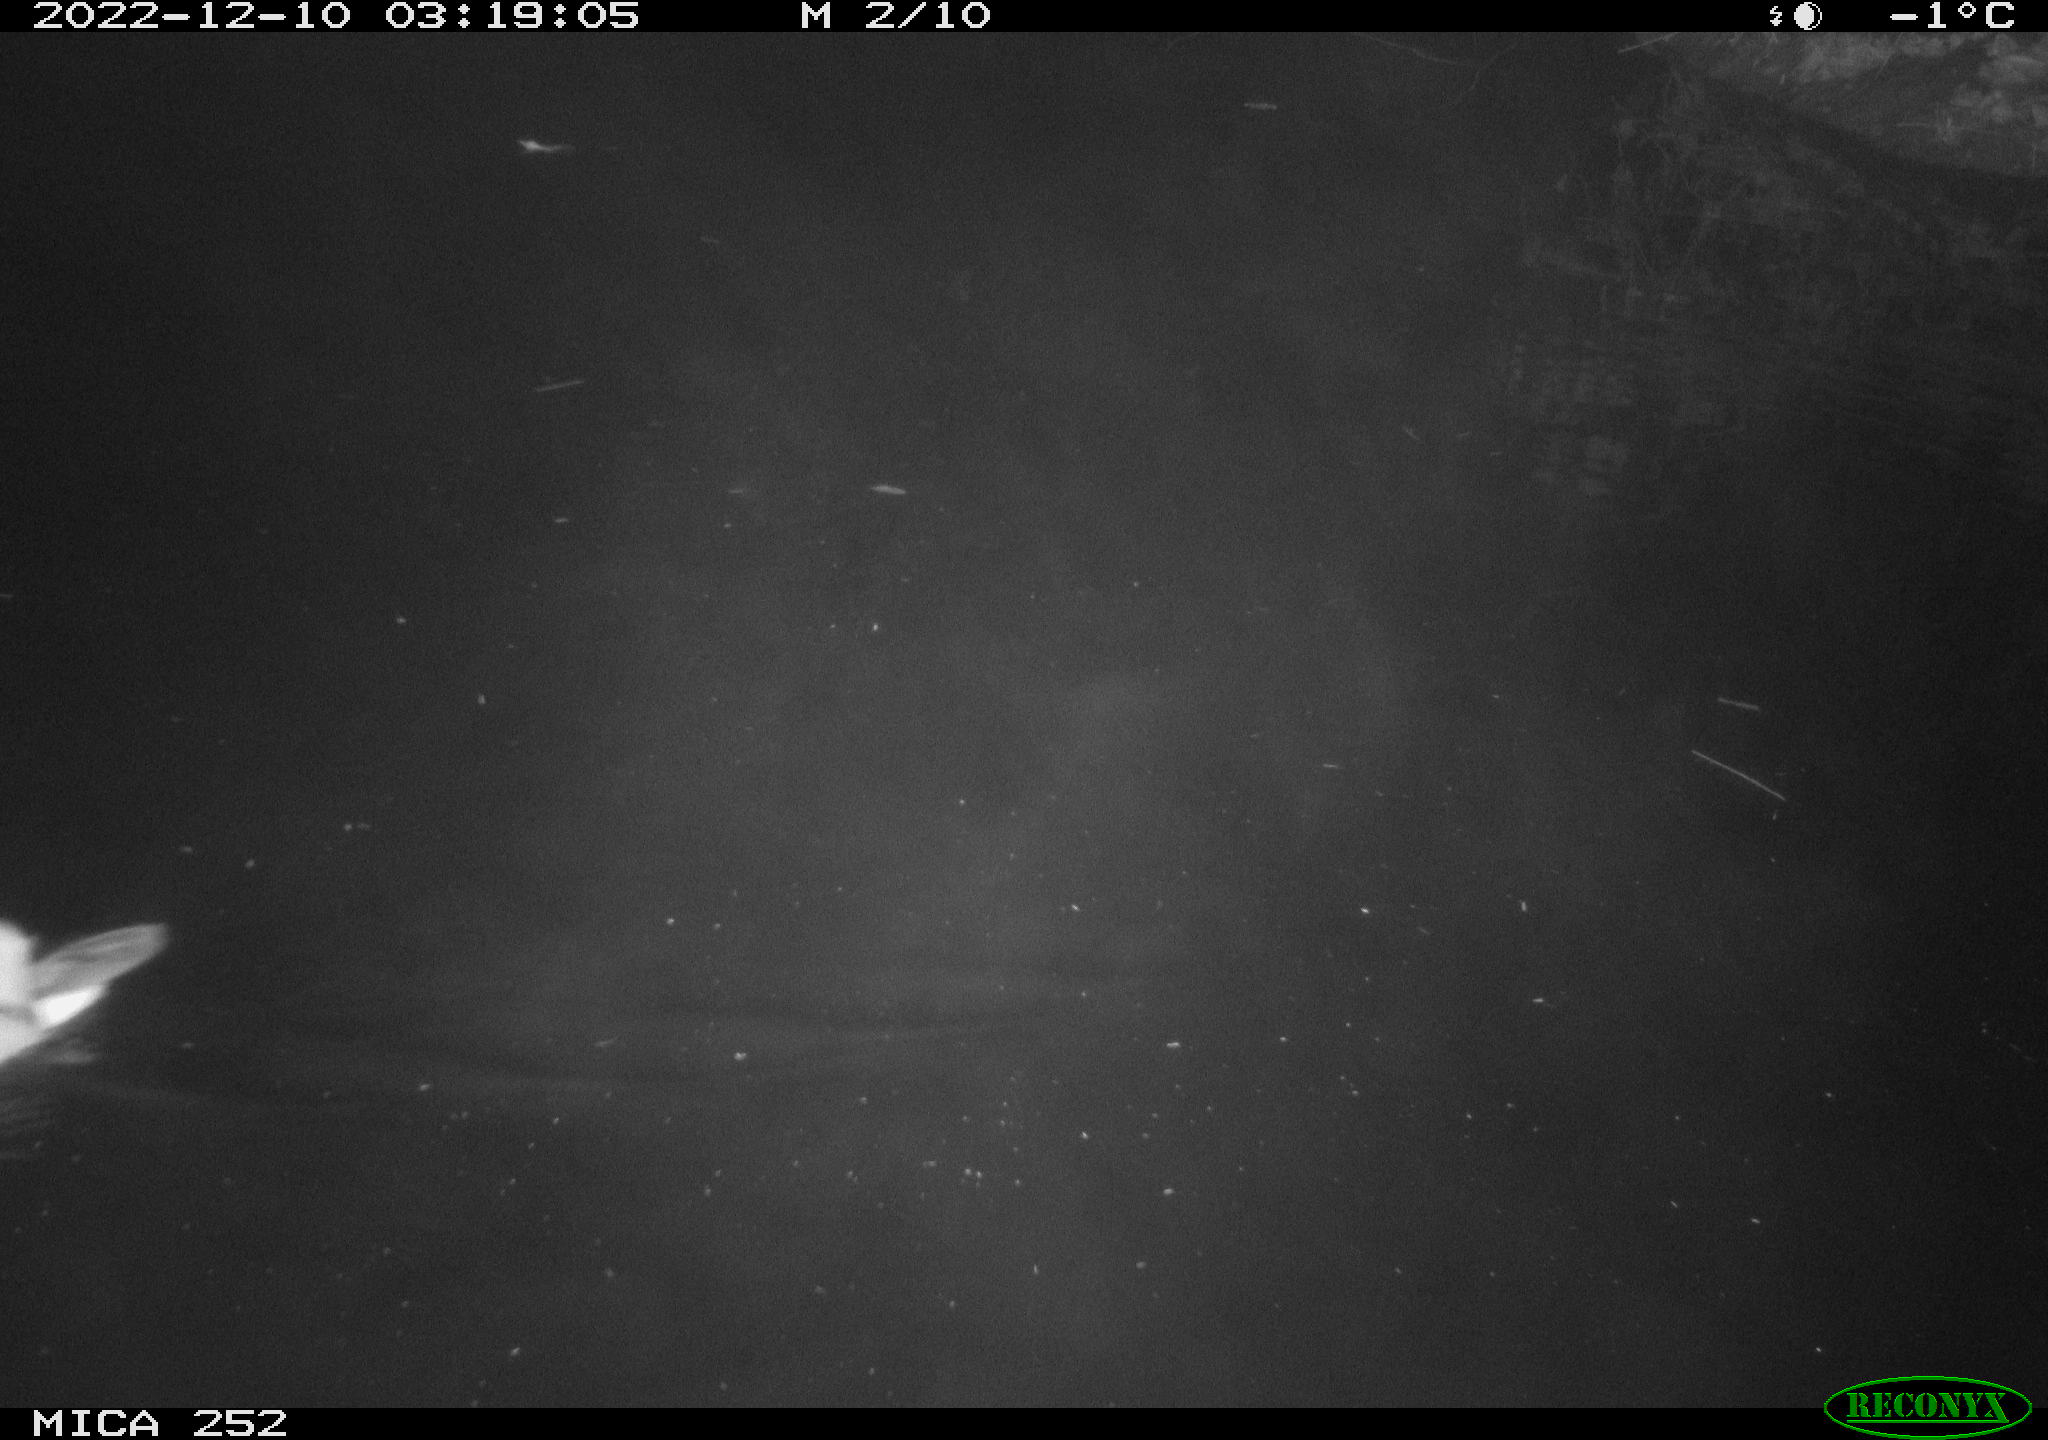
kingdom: Animalia
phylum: Chordata
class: Aves
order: Anseriformes
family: Anatidae
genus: Anas
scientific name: Anas
